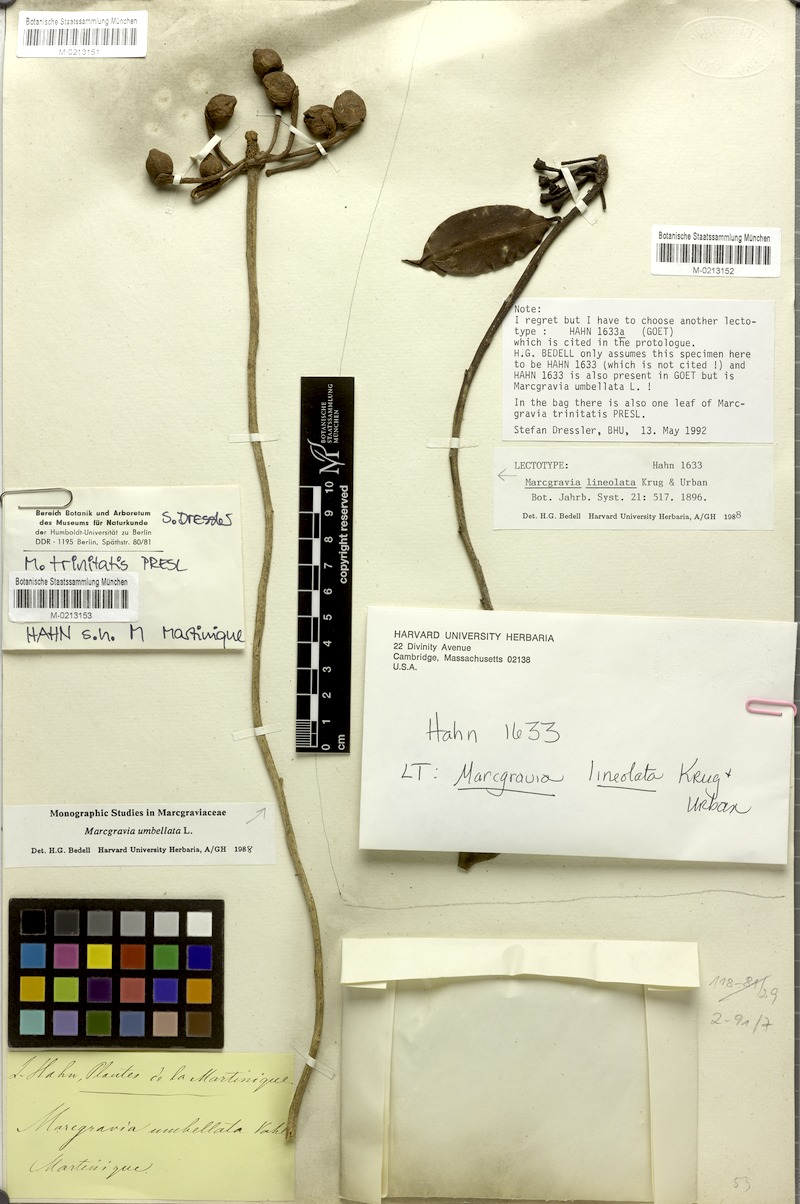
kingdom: Plantae
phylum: Tracheophyta
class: Magnoliopsida
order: Ericales
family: Marcgraviaceae
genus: Marcgravia
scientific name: Marcgravia trinitatis
